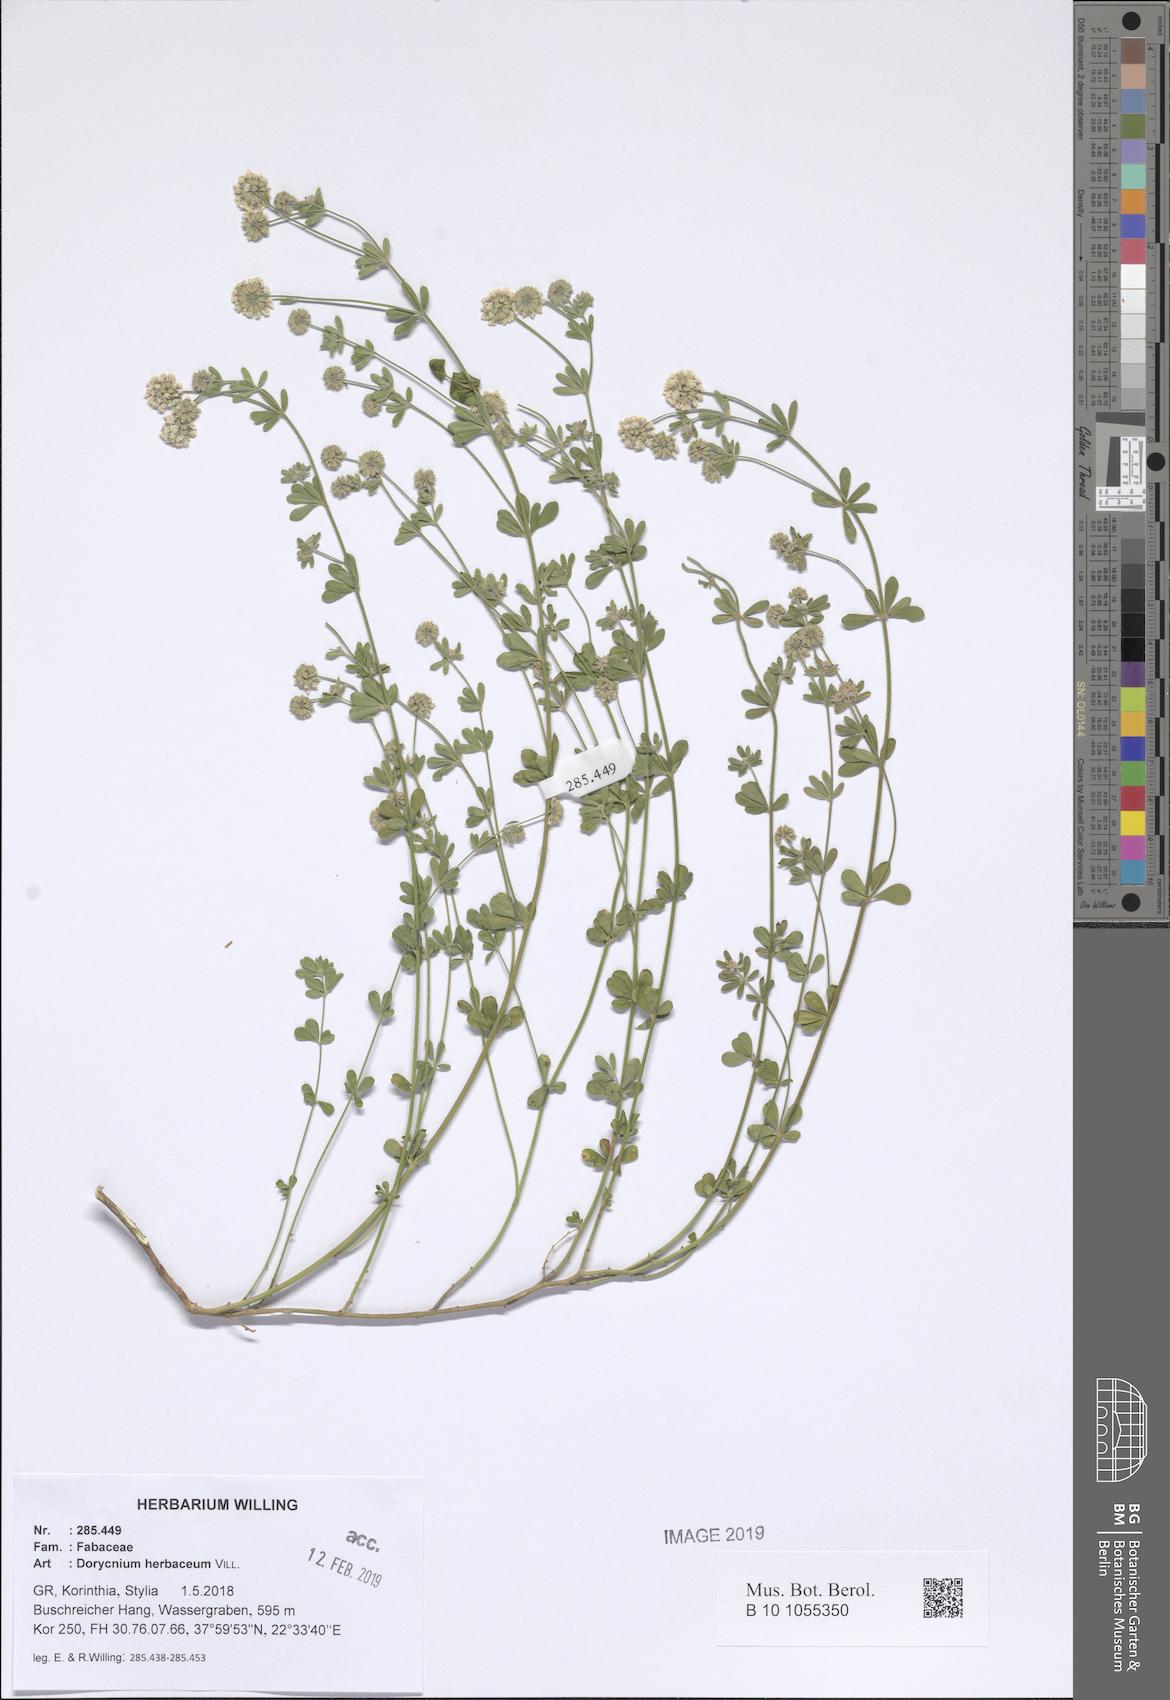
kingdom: Plantae
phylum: Tracheophyta
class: Magnoliopsida
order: Fabales
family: Fabaceae
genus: Lotus
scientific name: Lotus herbaceus
